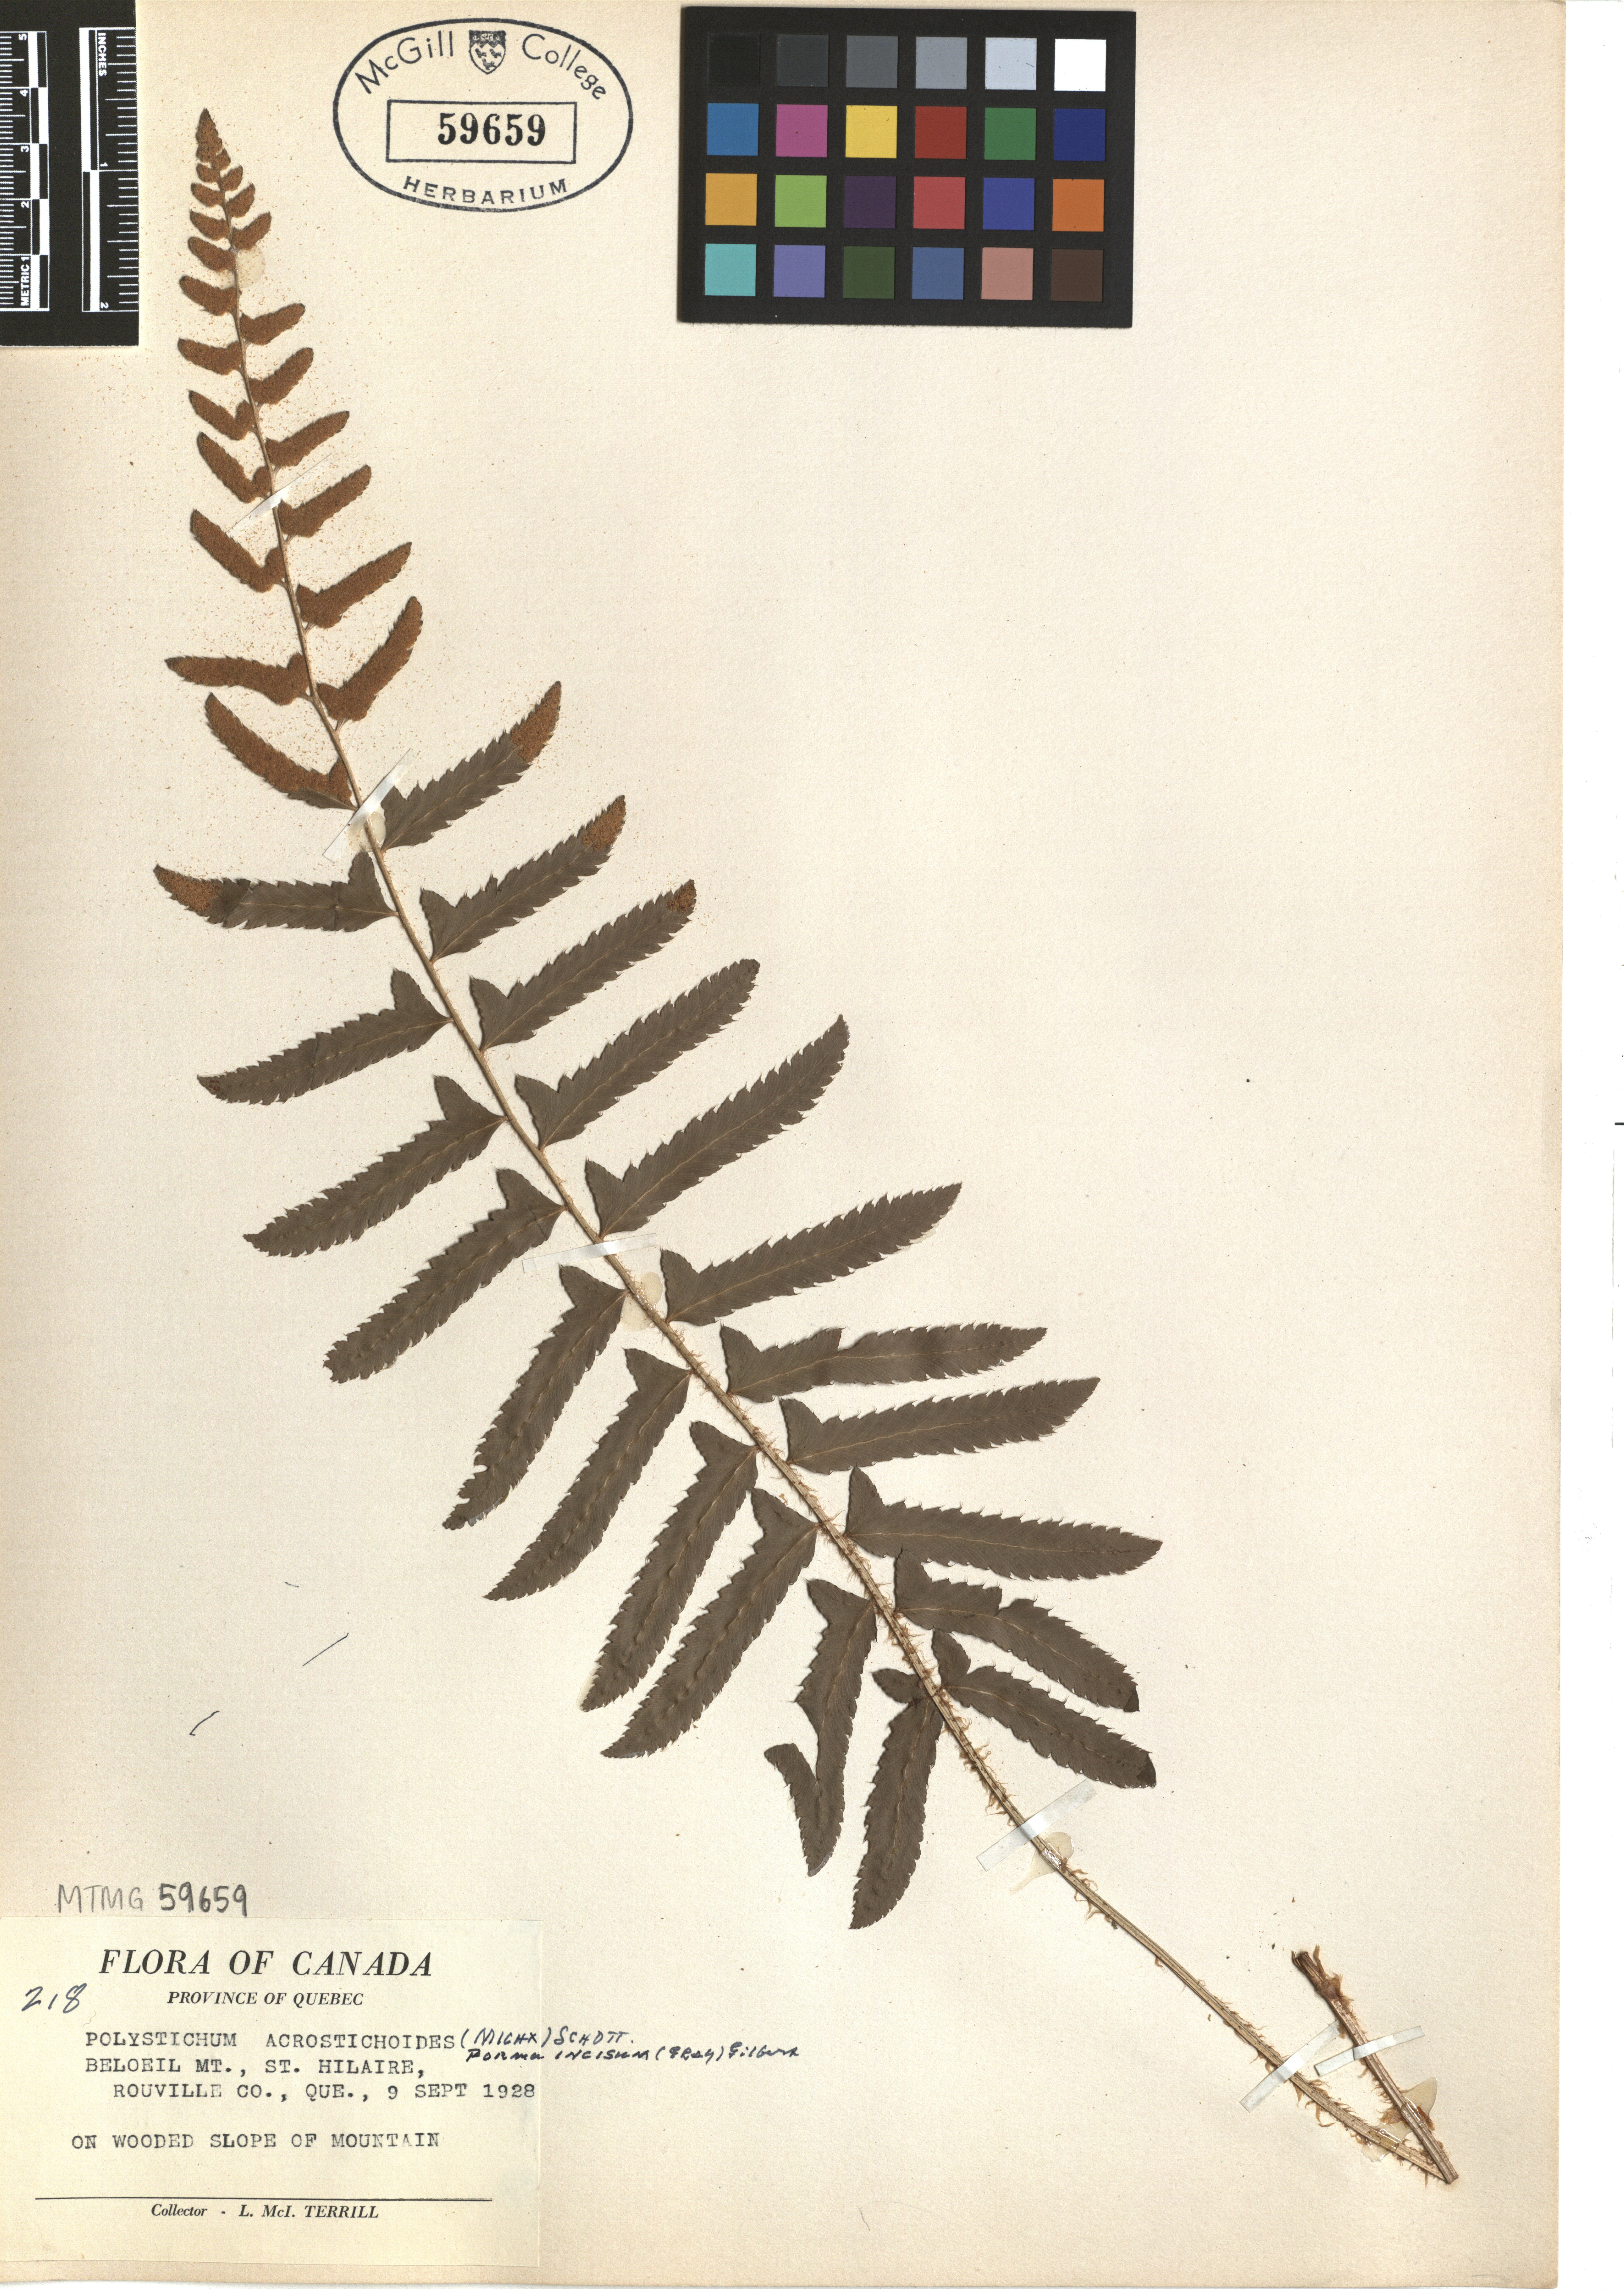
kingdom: Plantae
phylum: Tracheophyta
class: Polypodiopsida
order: Polypodiales
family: Dryopteridaceae
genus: Polystichum
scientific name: Polystichum acrostichoides
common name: Christmas fern
